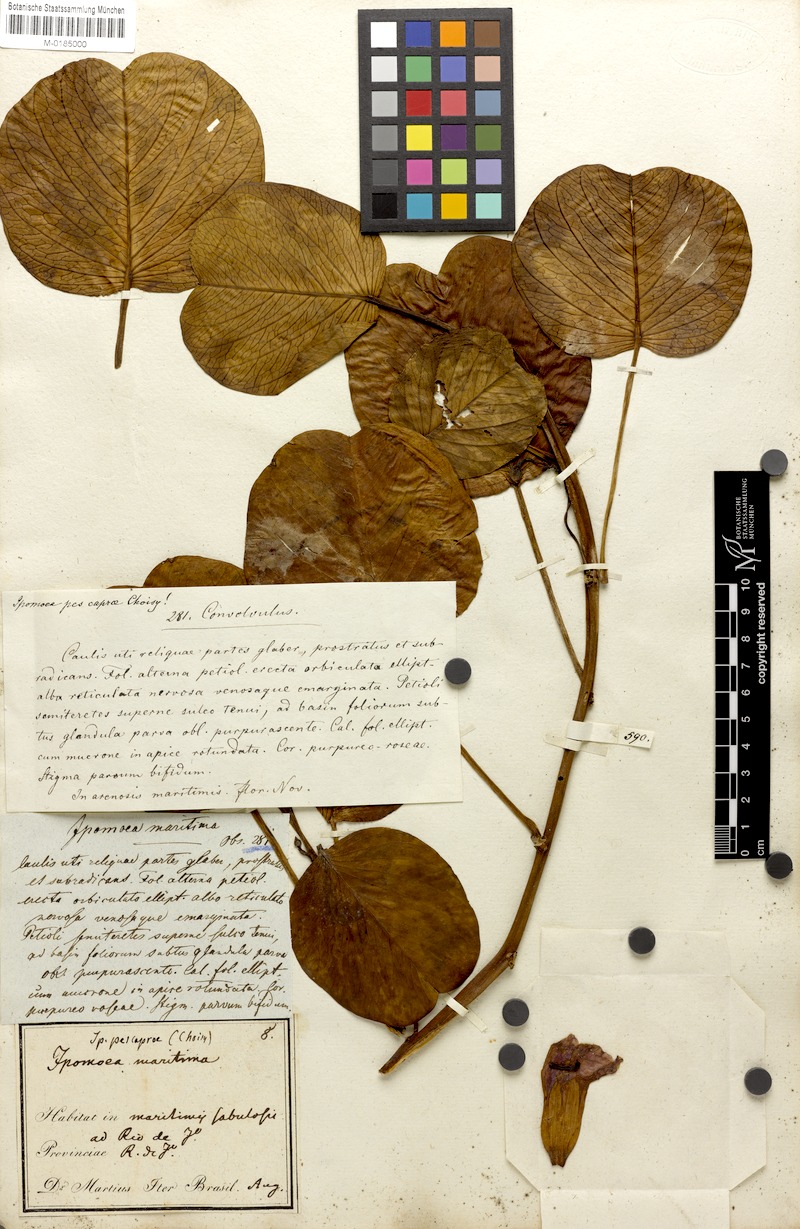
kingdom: Plantae
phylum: Tracheophyta
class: Magnoliopsida
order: Solanales
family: Convolvulaceae
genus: Ipomoea
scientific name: Ipomoea pes-caprae
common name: Beach morning glory
